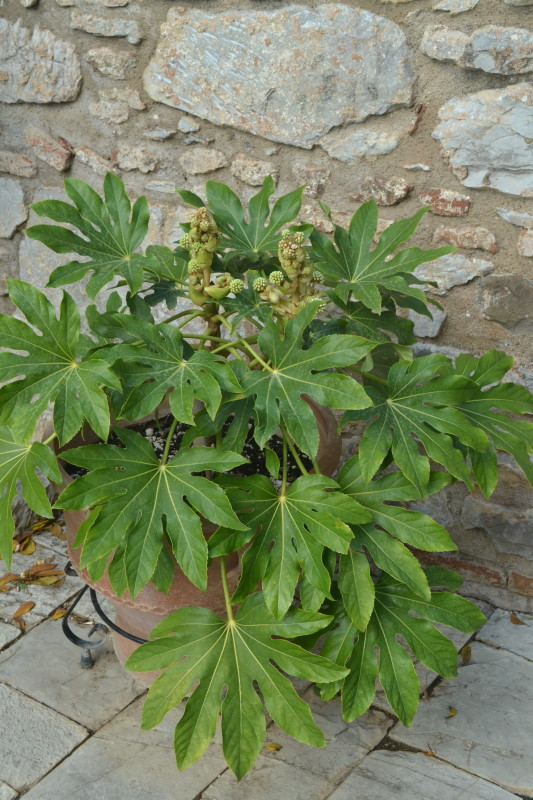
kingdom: Plantae
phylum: Tracheophyta
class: Magnoliopsida
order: Apiales
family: Araliaceae
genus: Fatsia
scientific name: Fatsia japonica
